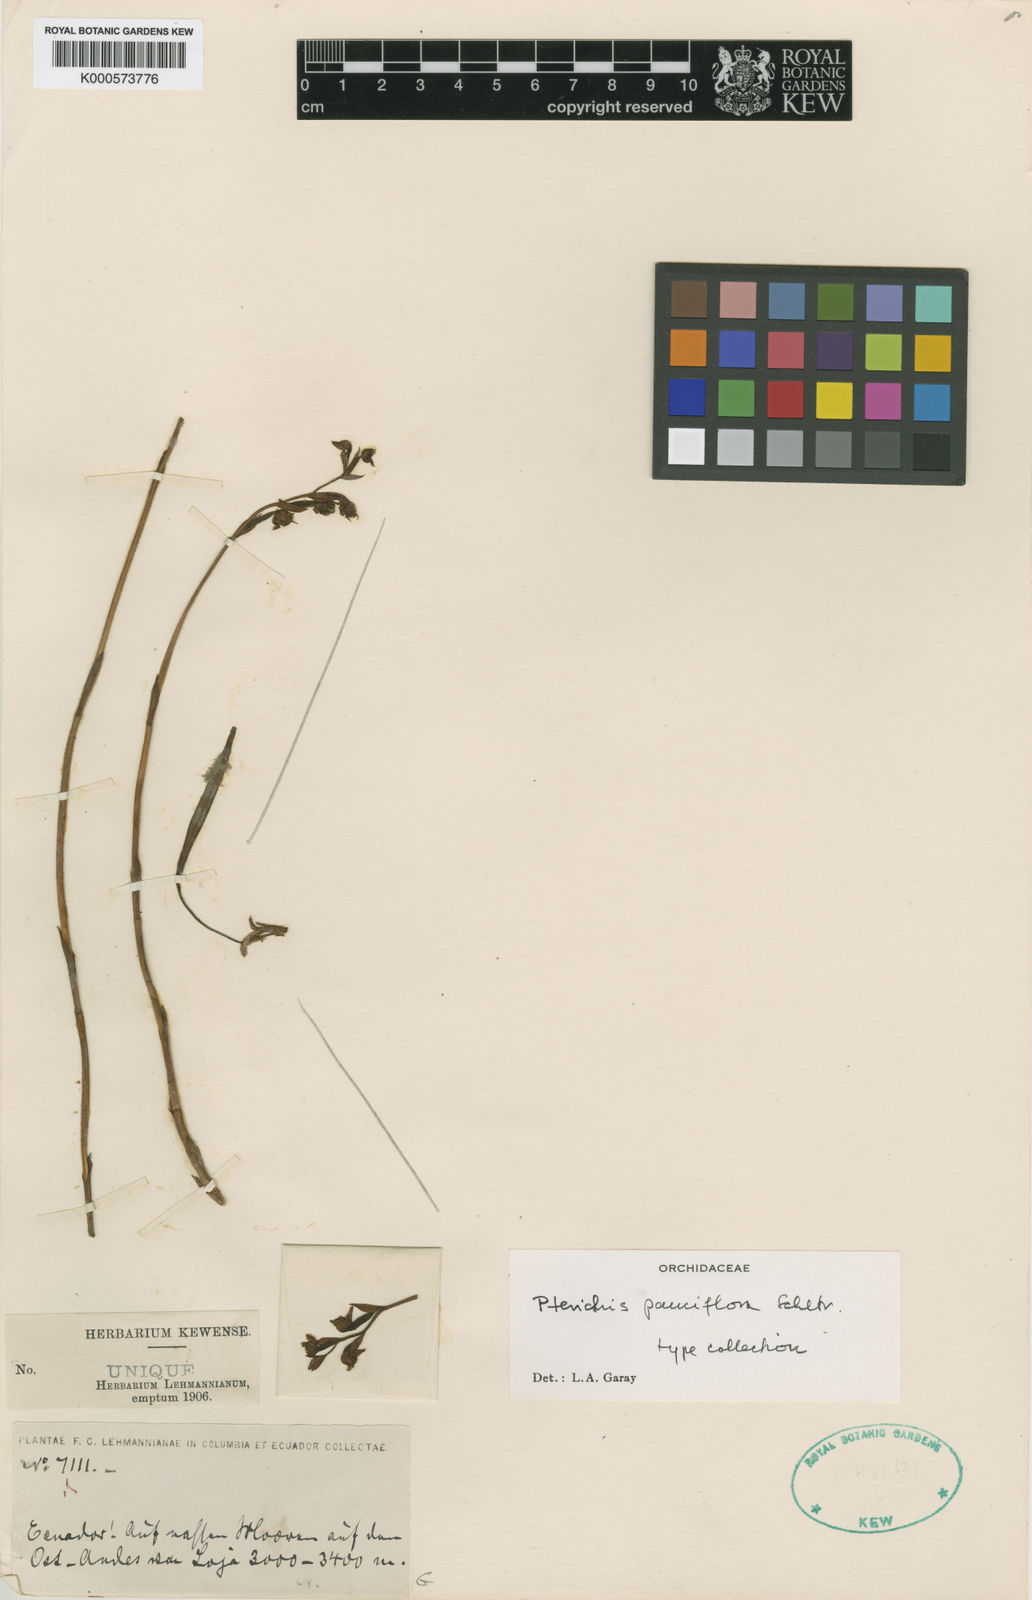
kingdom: Plantae
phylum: Tracheophyta
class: Liliopsida
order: Asparagales
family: Orchidaceae
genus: Pterichis
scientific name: Pterichis pauciflora
